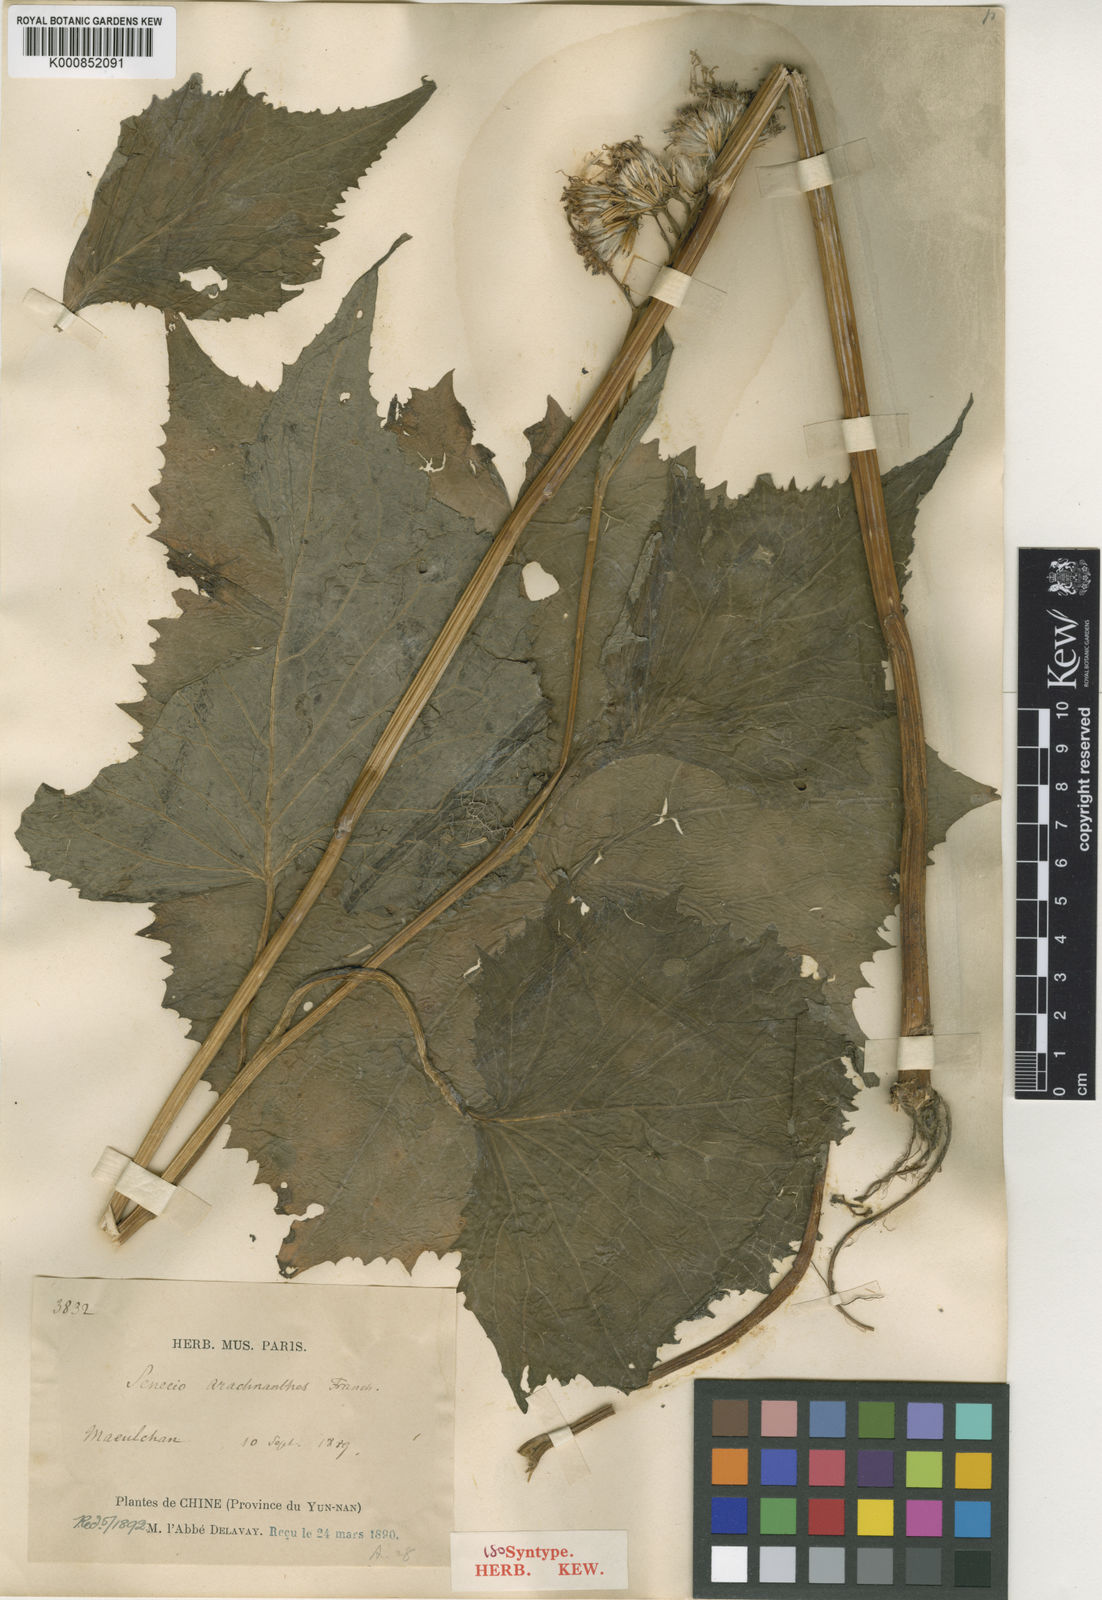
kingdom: Plantae
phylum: Tracheophyta
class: Magnoliopsida
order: Asterales
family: Asteraceae
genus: Senecio
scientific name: Senecio arachnanthus
